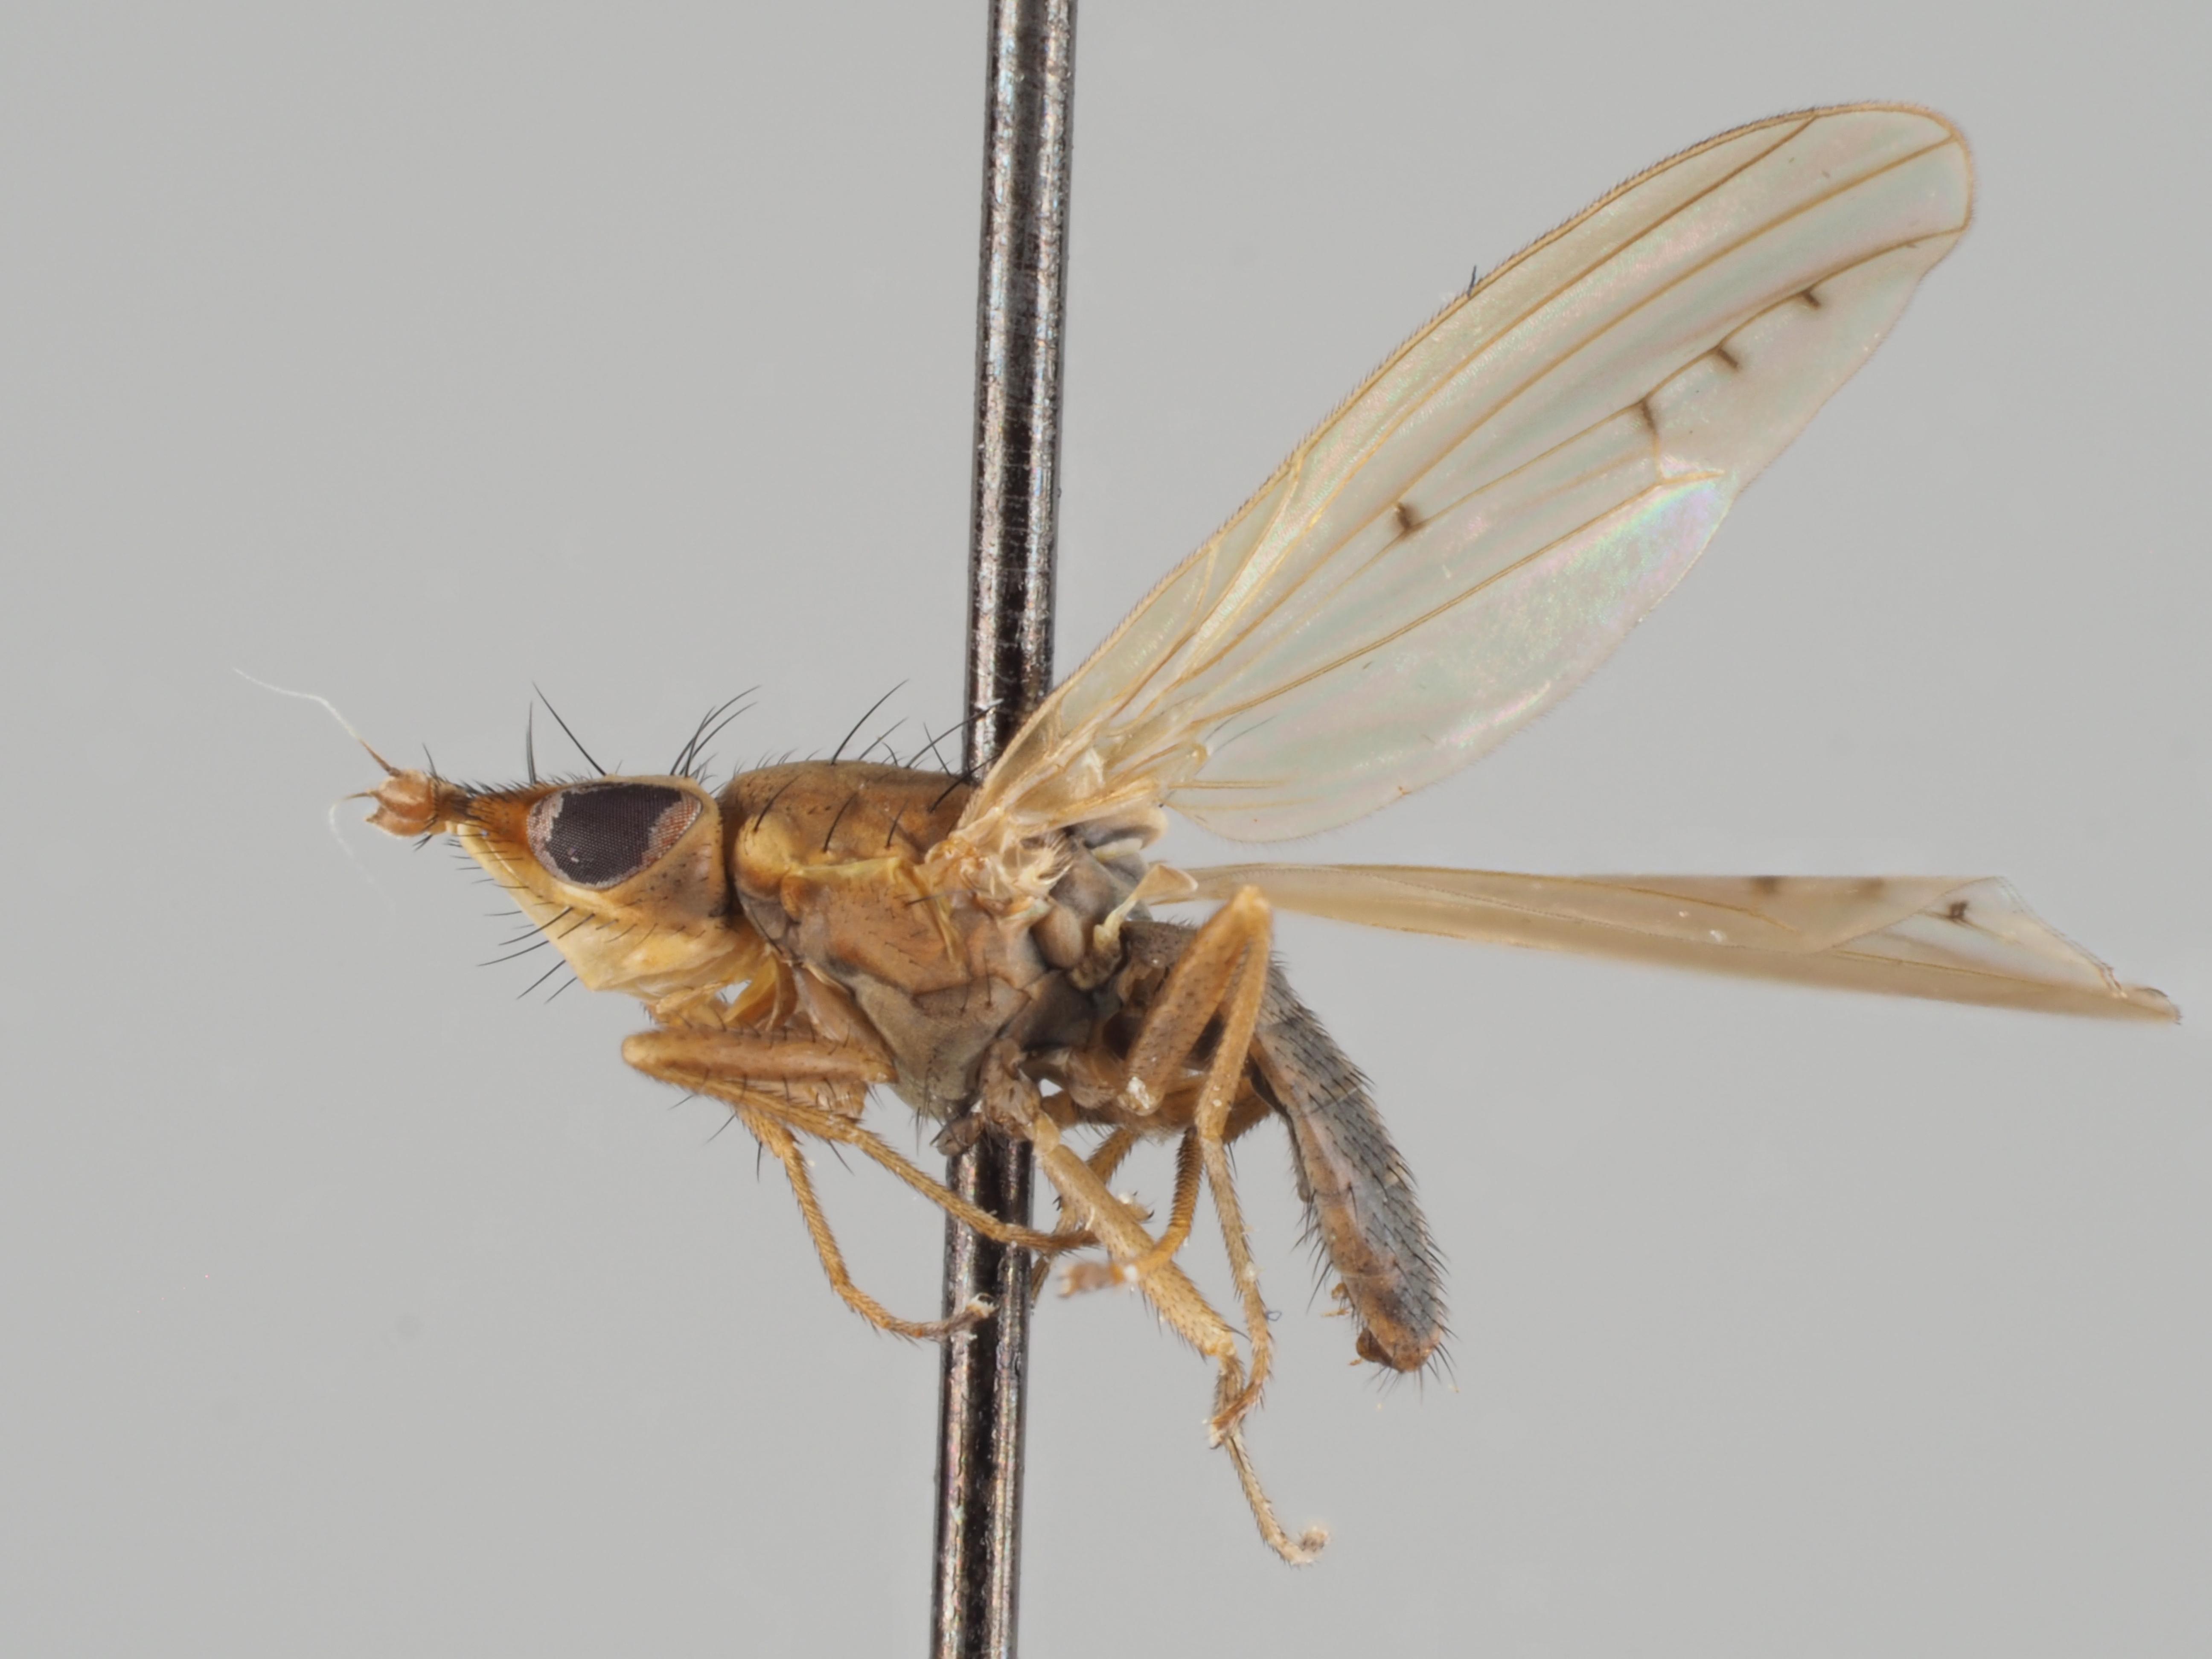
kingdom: Animalia
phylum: Arthropoda
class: Insecta
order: Diptera
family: Lauxaniidae
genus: Trigonometopus
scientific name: Trigonometopus frontalis
